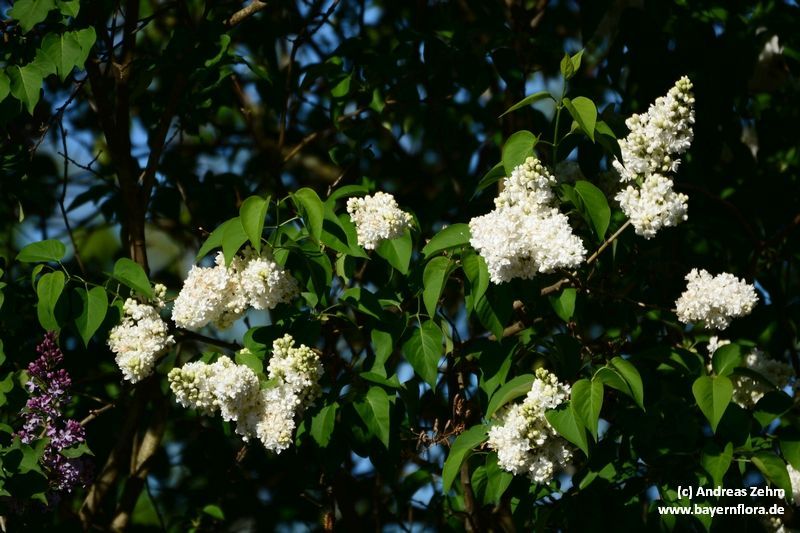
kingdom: Plantae
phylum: Tracheophyta
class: Magnoliopsida
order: Lamiales
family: Oleaceae
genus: Syringa
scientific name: Syringa vulgaris
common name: Common lilac
